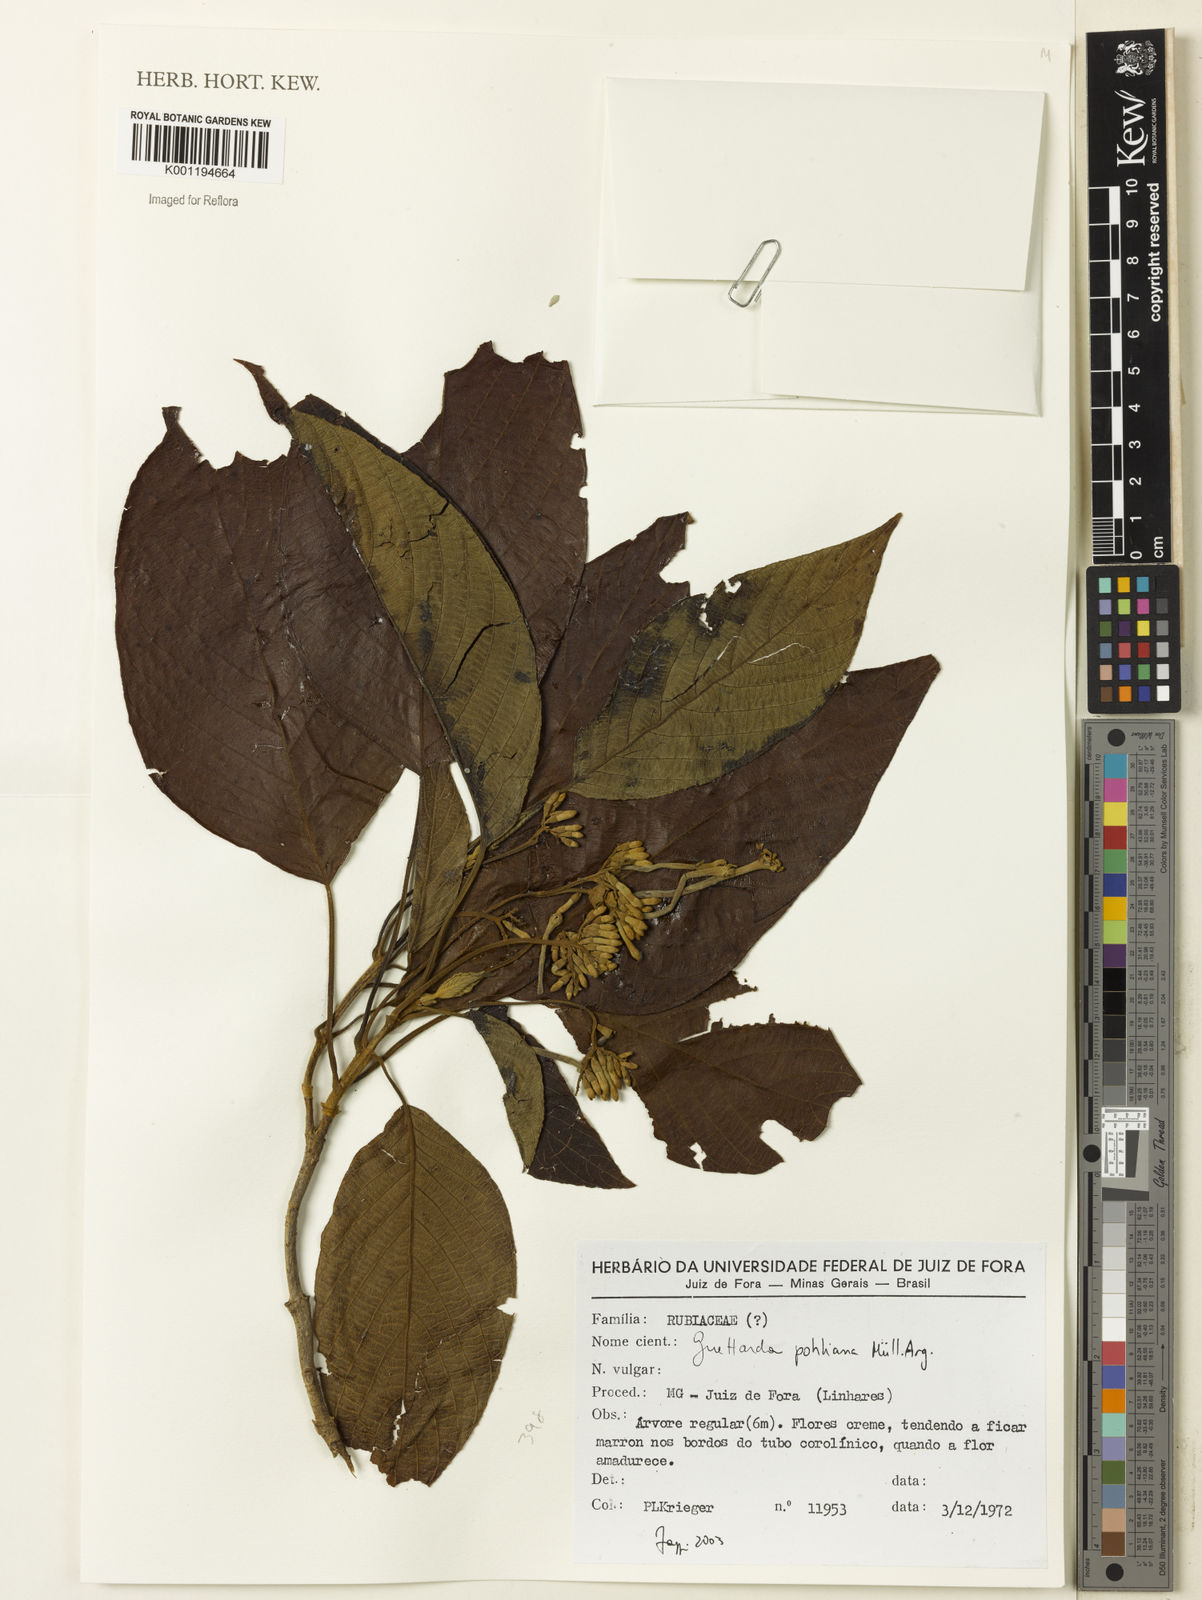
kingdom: Plantae
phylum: Tracheophyta
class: Magnoliopsida
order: Gentianales
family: Rubiaceae
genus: Guettarda
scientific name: Guettarda
